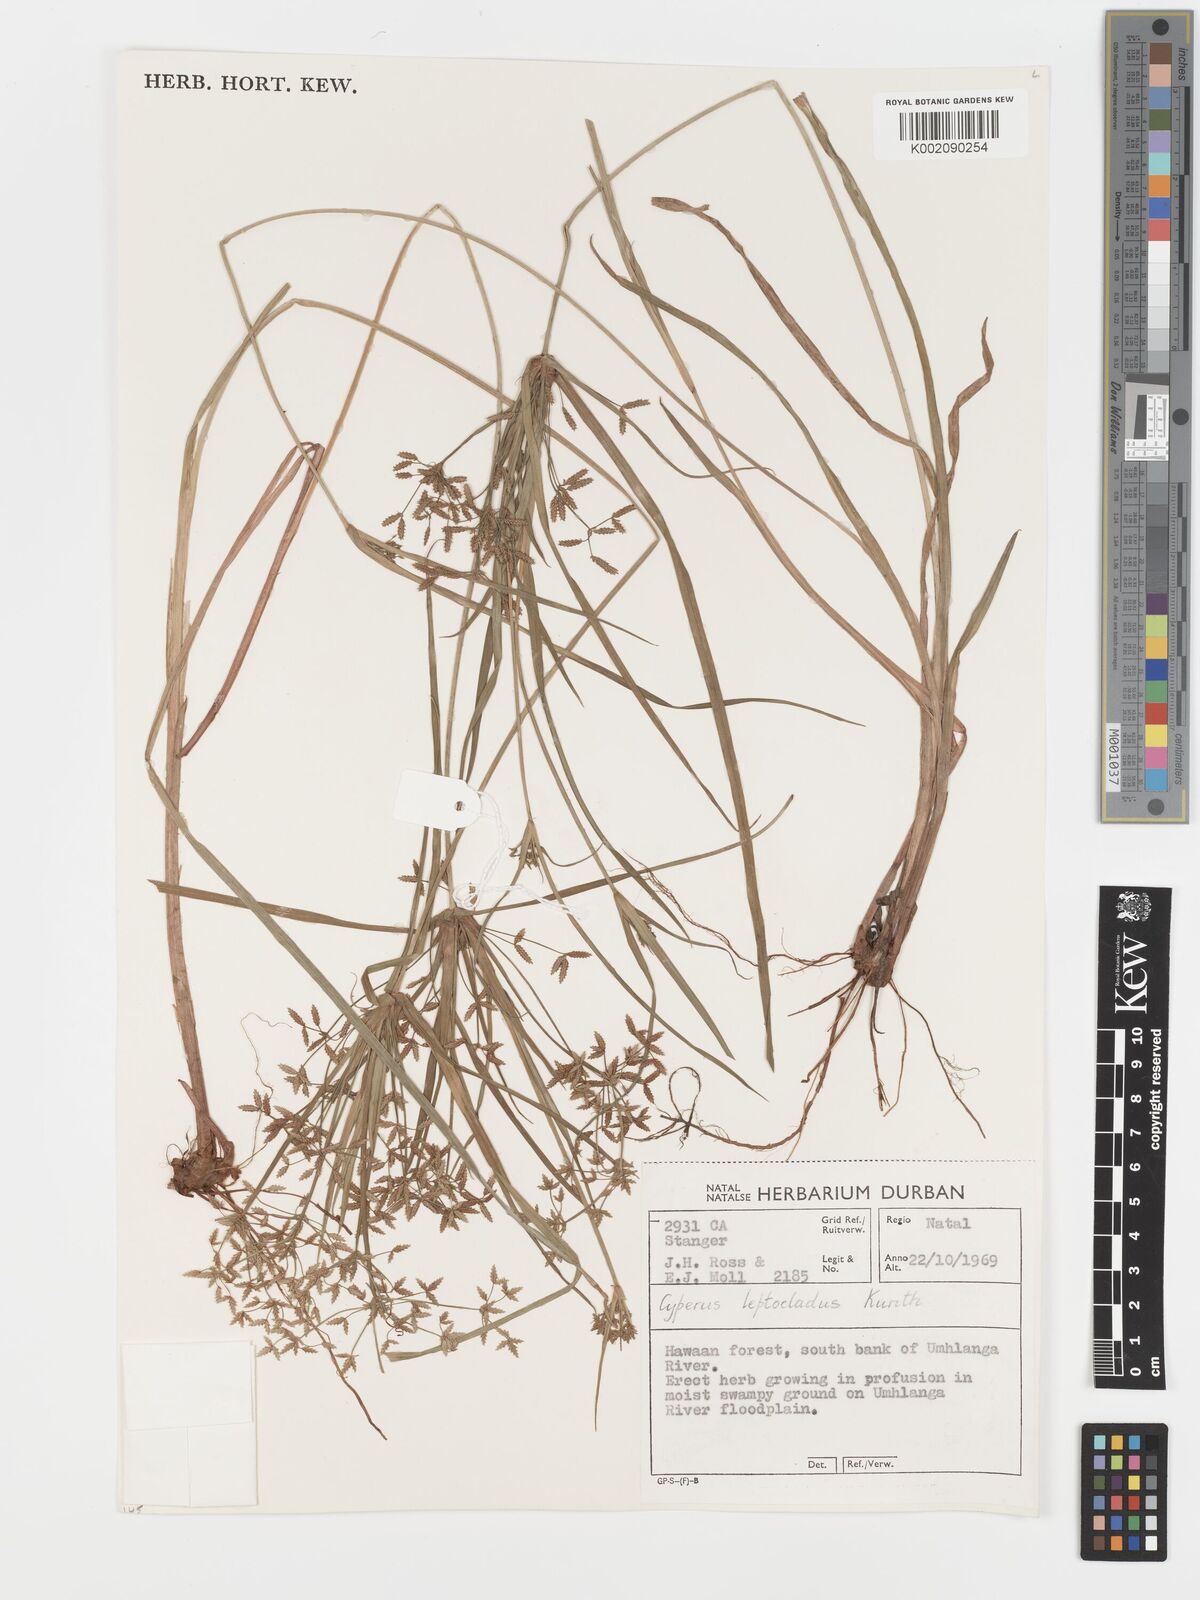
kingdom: Plantae
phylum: Tracheophyta
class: Liliopsida
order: Poales
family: Cyperaceae
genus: Cyperus
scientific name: Cyperus leptocladus
